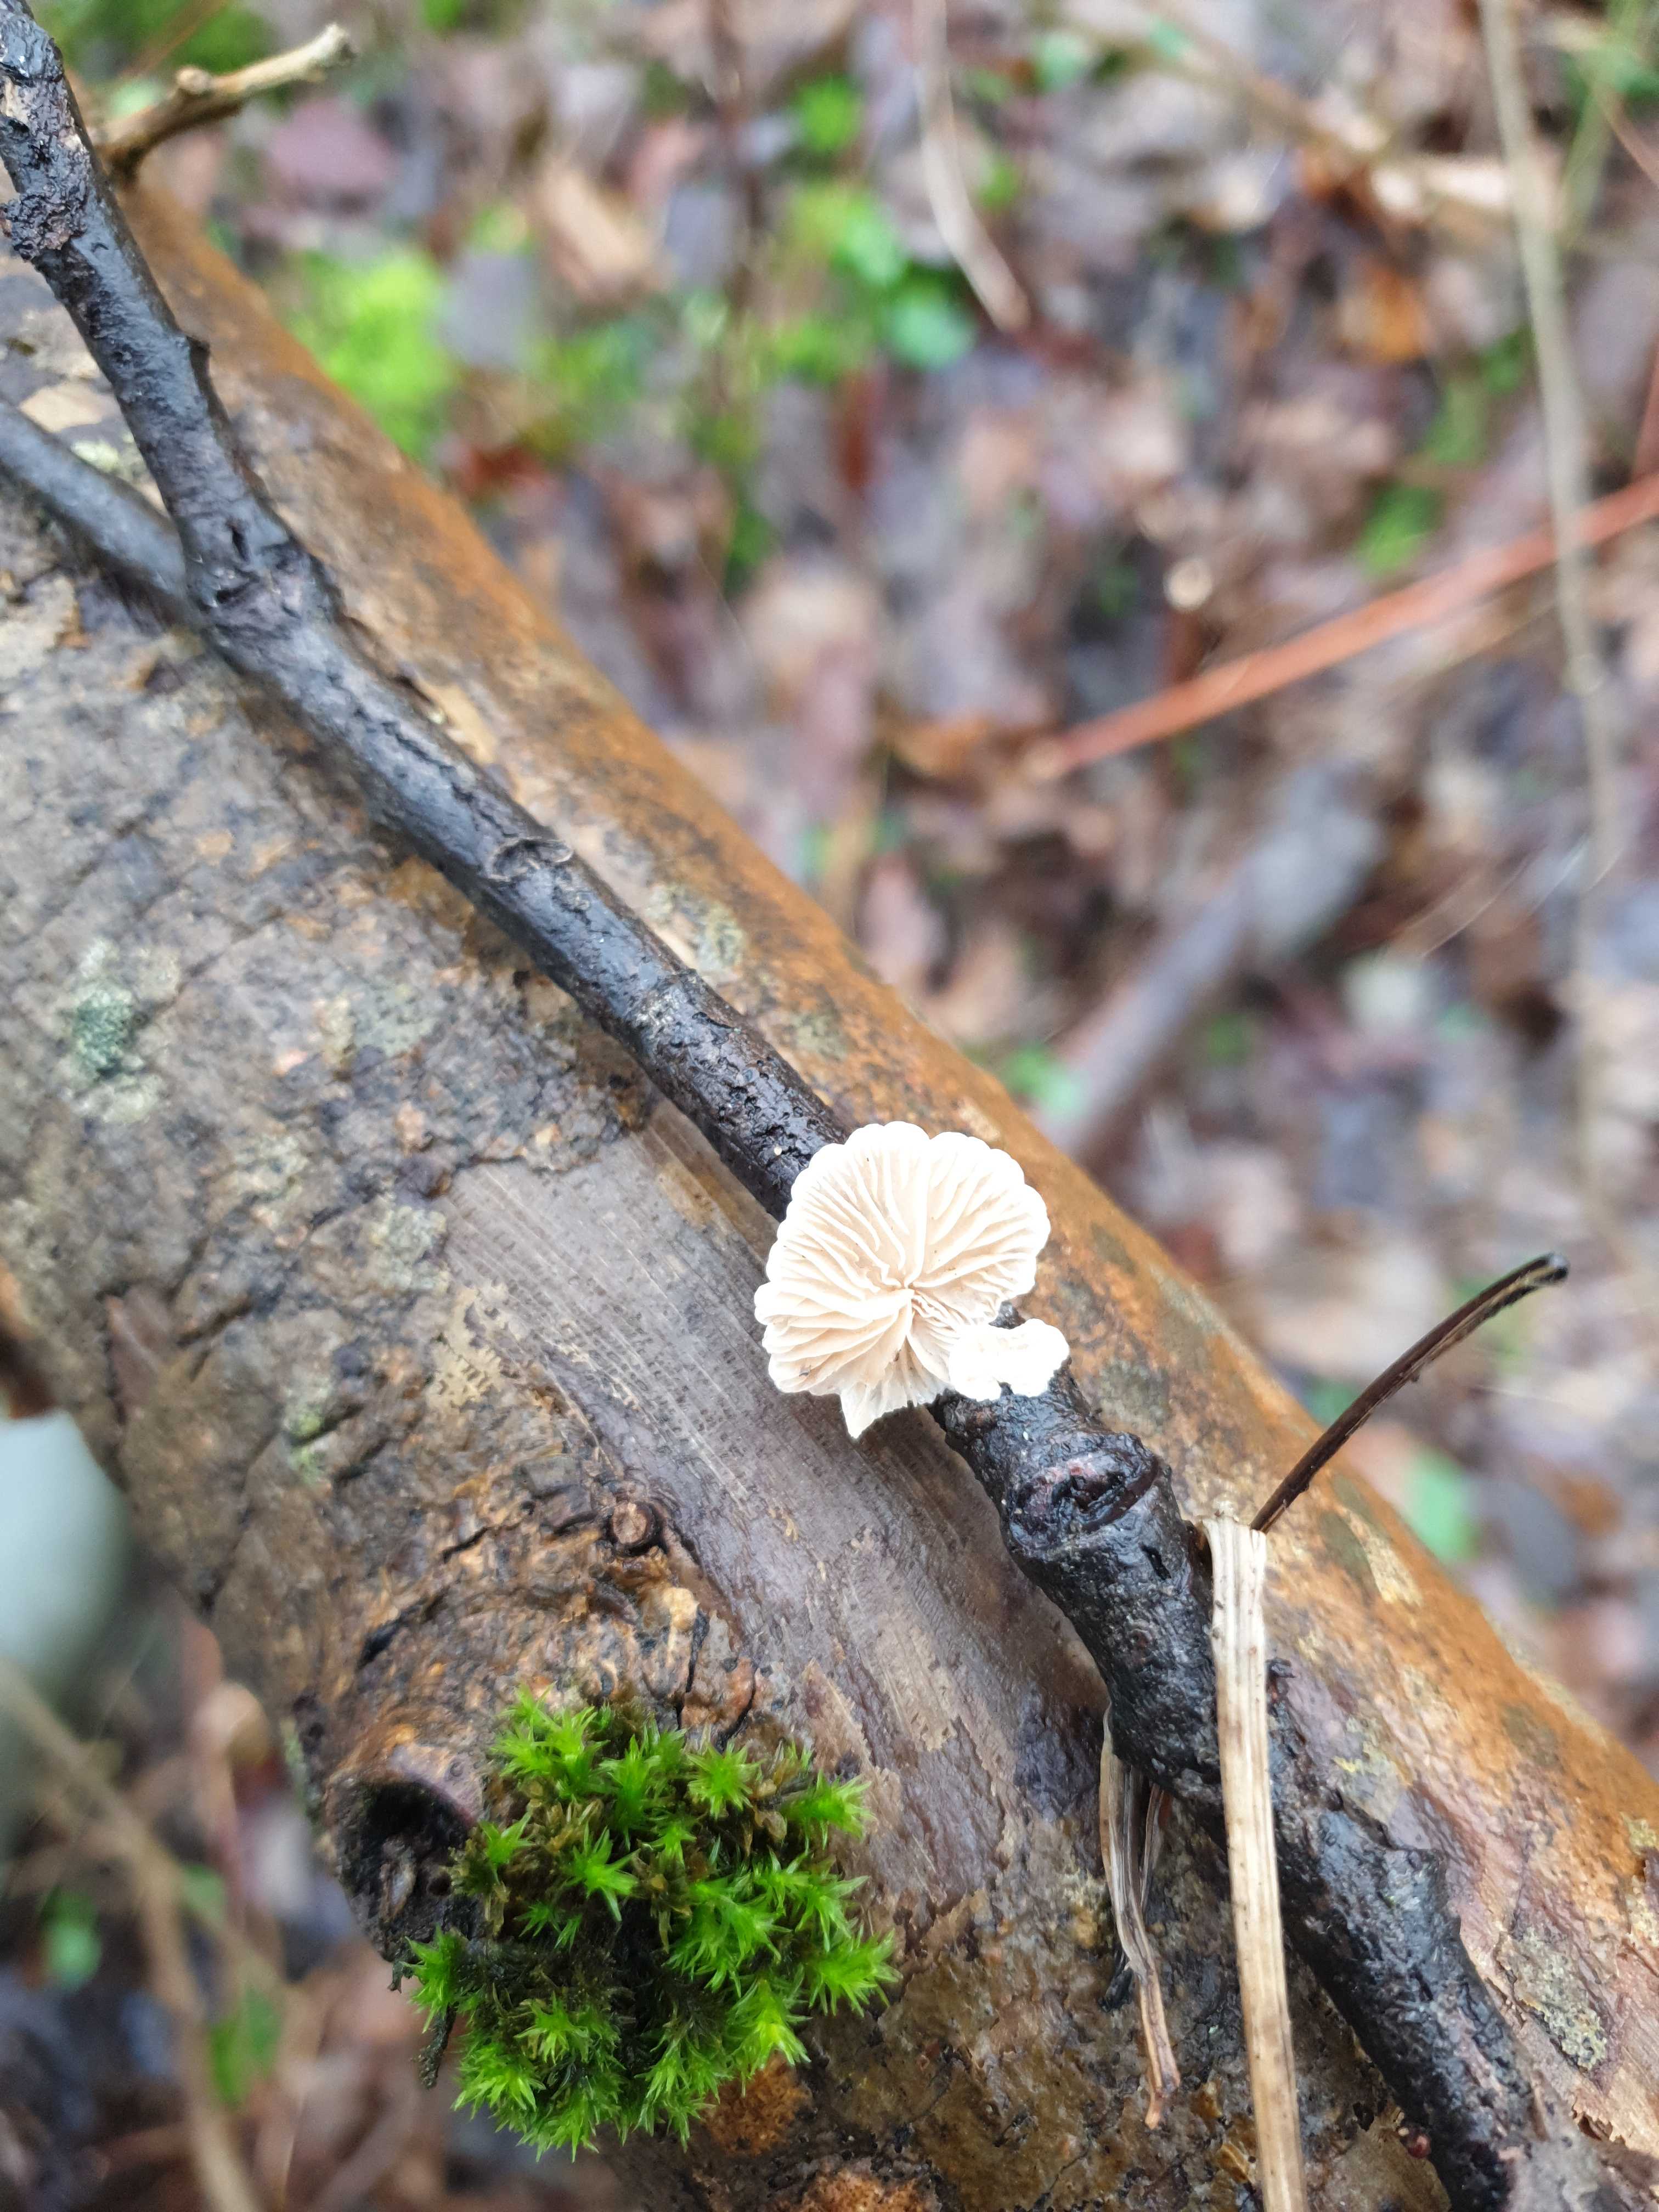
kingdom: Fungi
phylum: Basidiomycota
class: Agaricomycetes
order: Agaricales
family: Crepidotaceae
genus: Crepidotus
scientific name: Crepidotus
